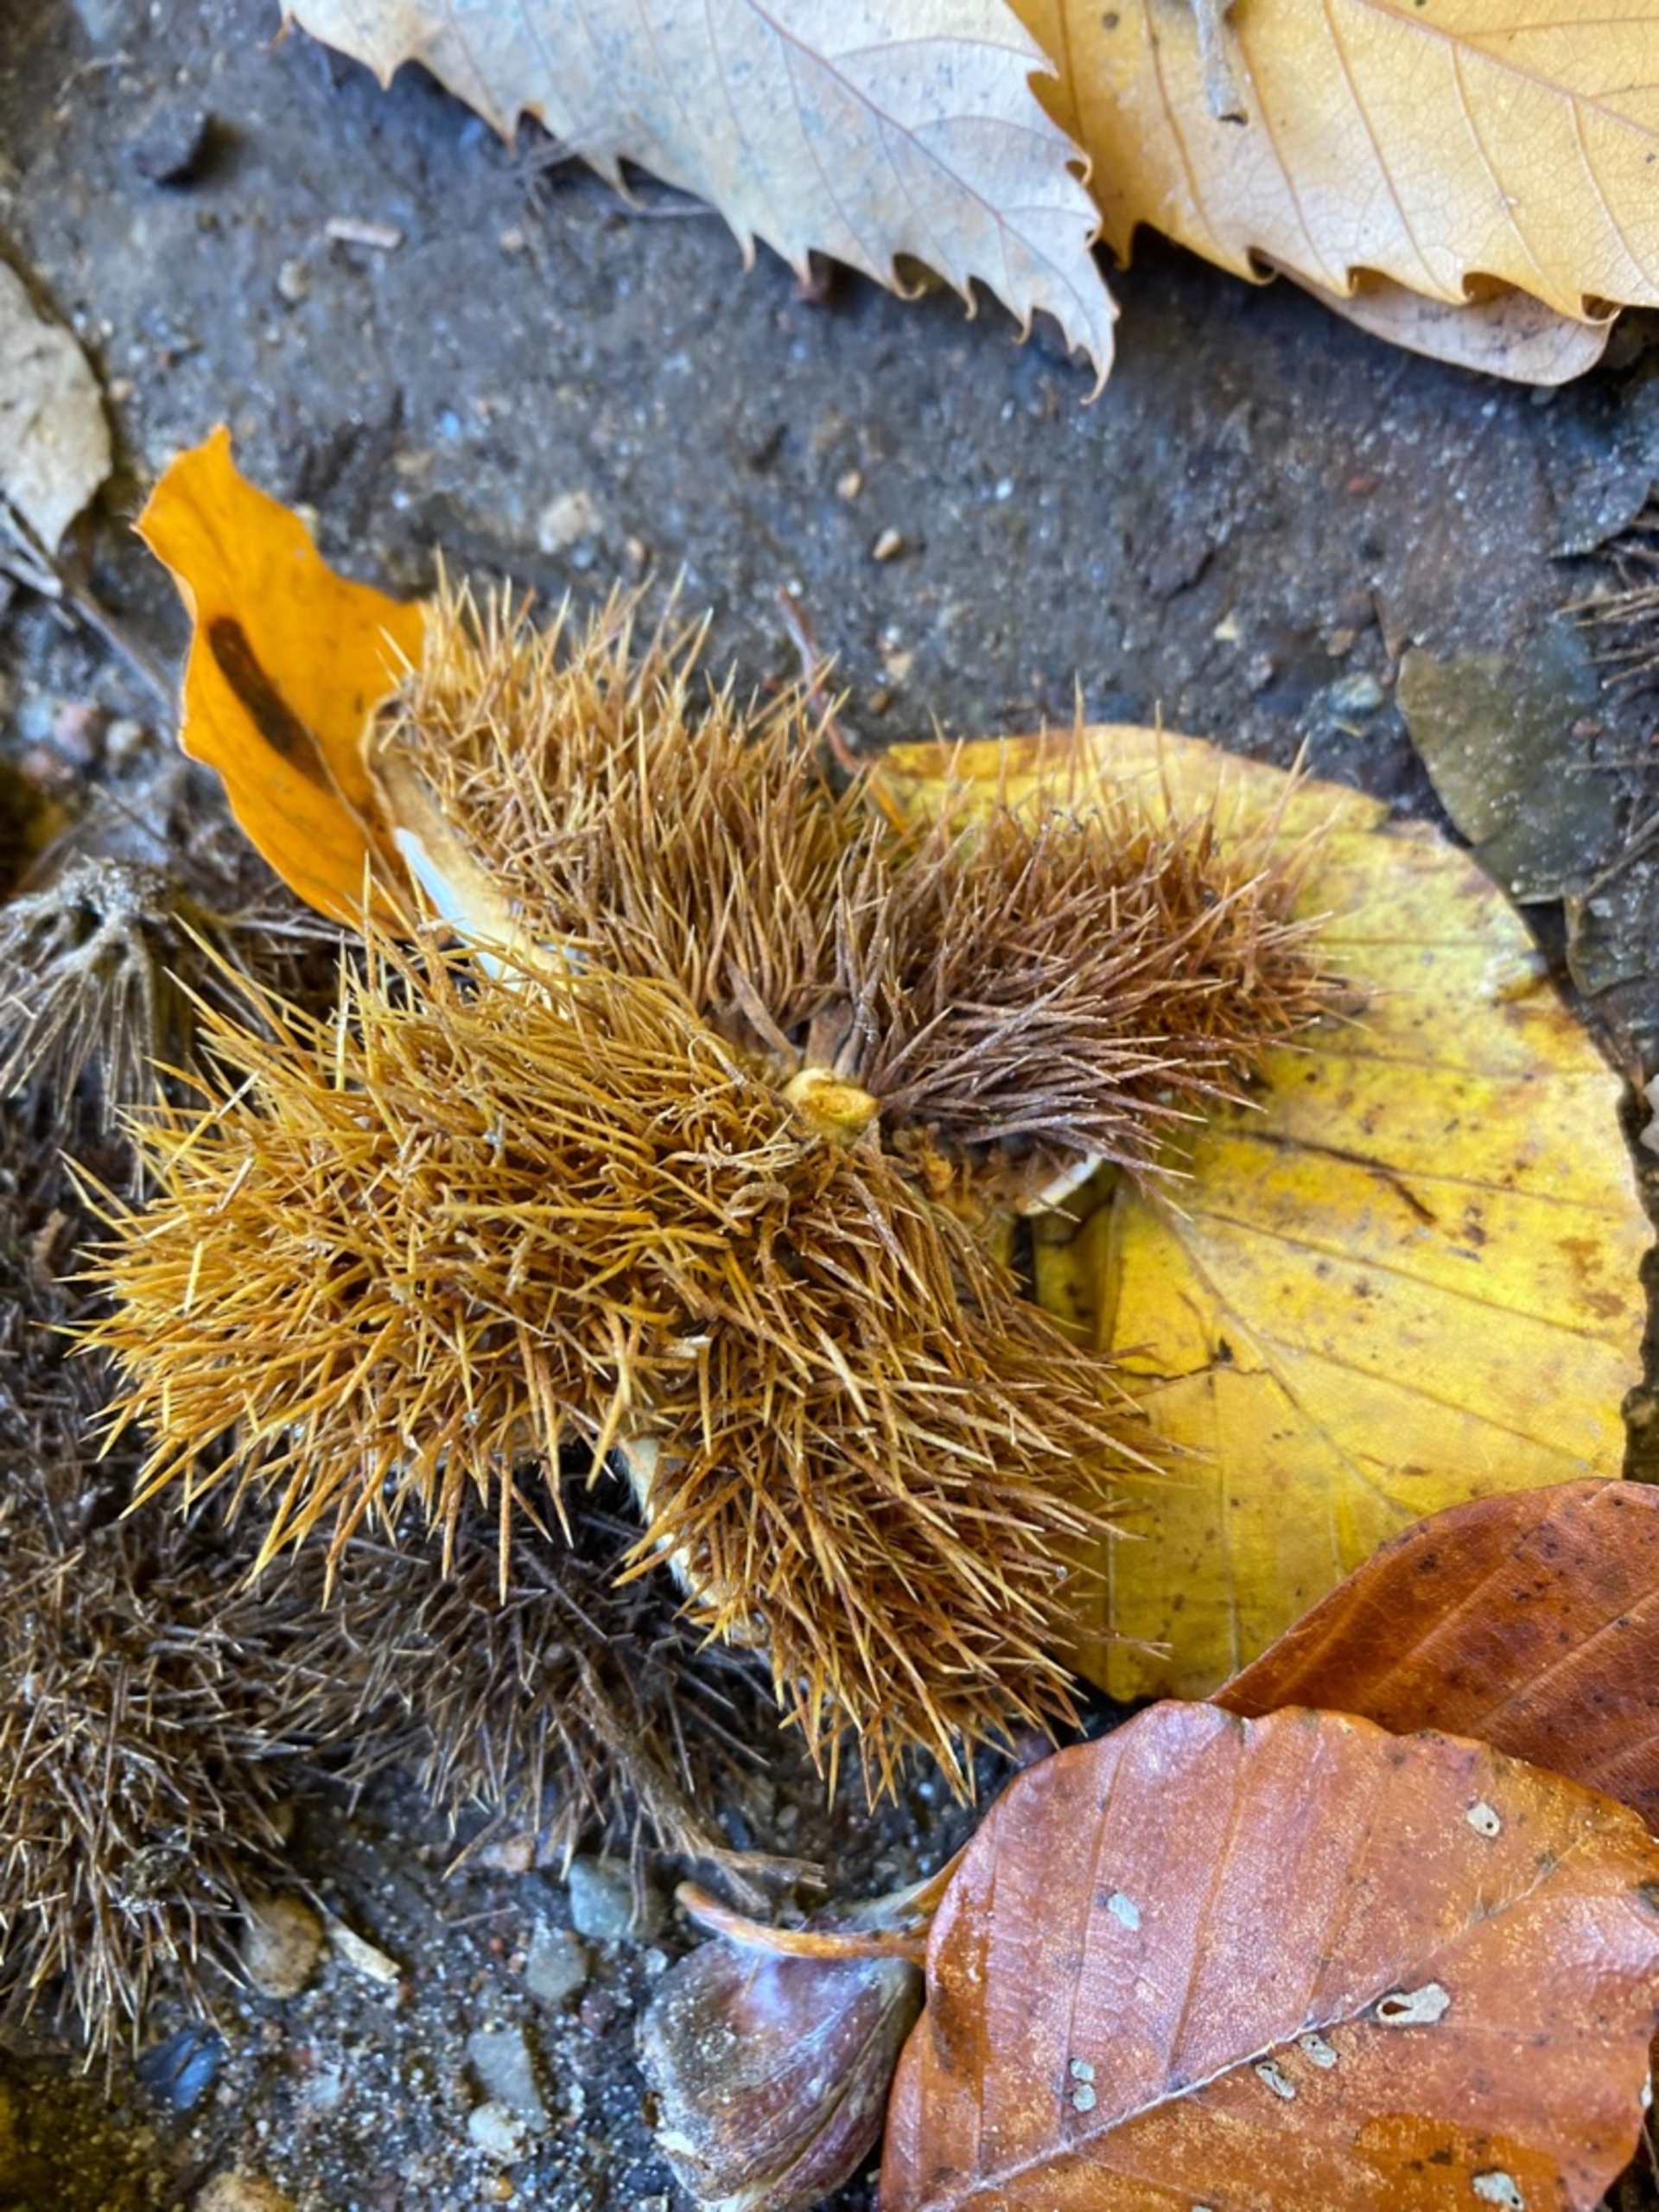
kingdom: Plantae
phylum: Tracheophyta
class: Magnoliopsida
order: Fagales
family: Fagaceae
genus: Castanea
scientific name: Castanea sativa
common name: Ægte kastanie
